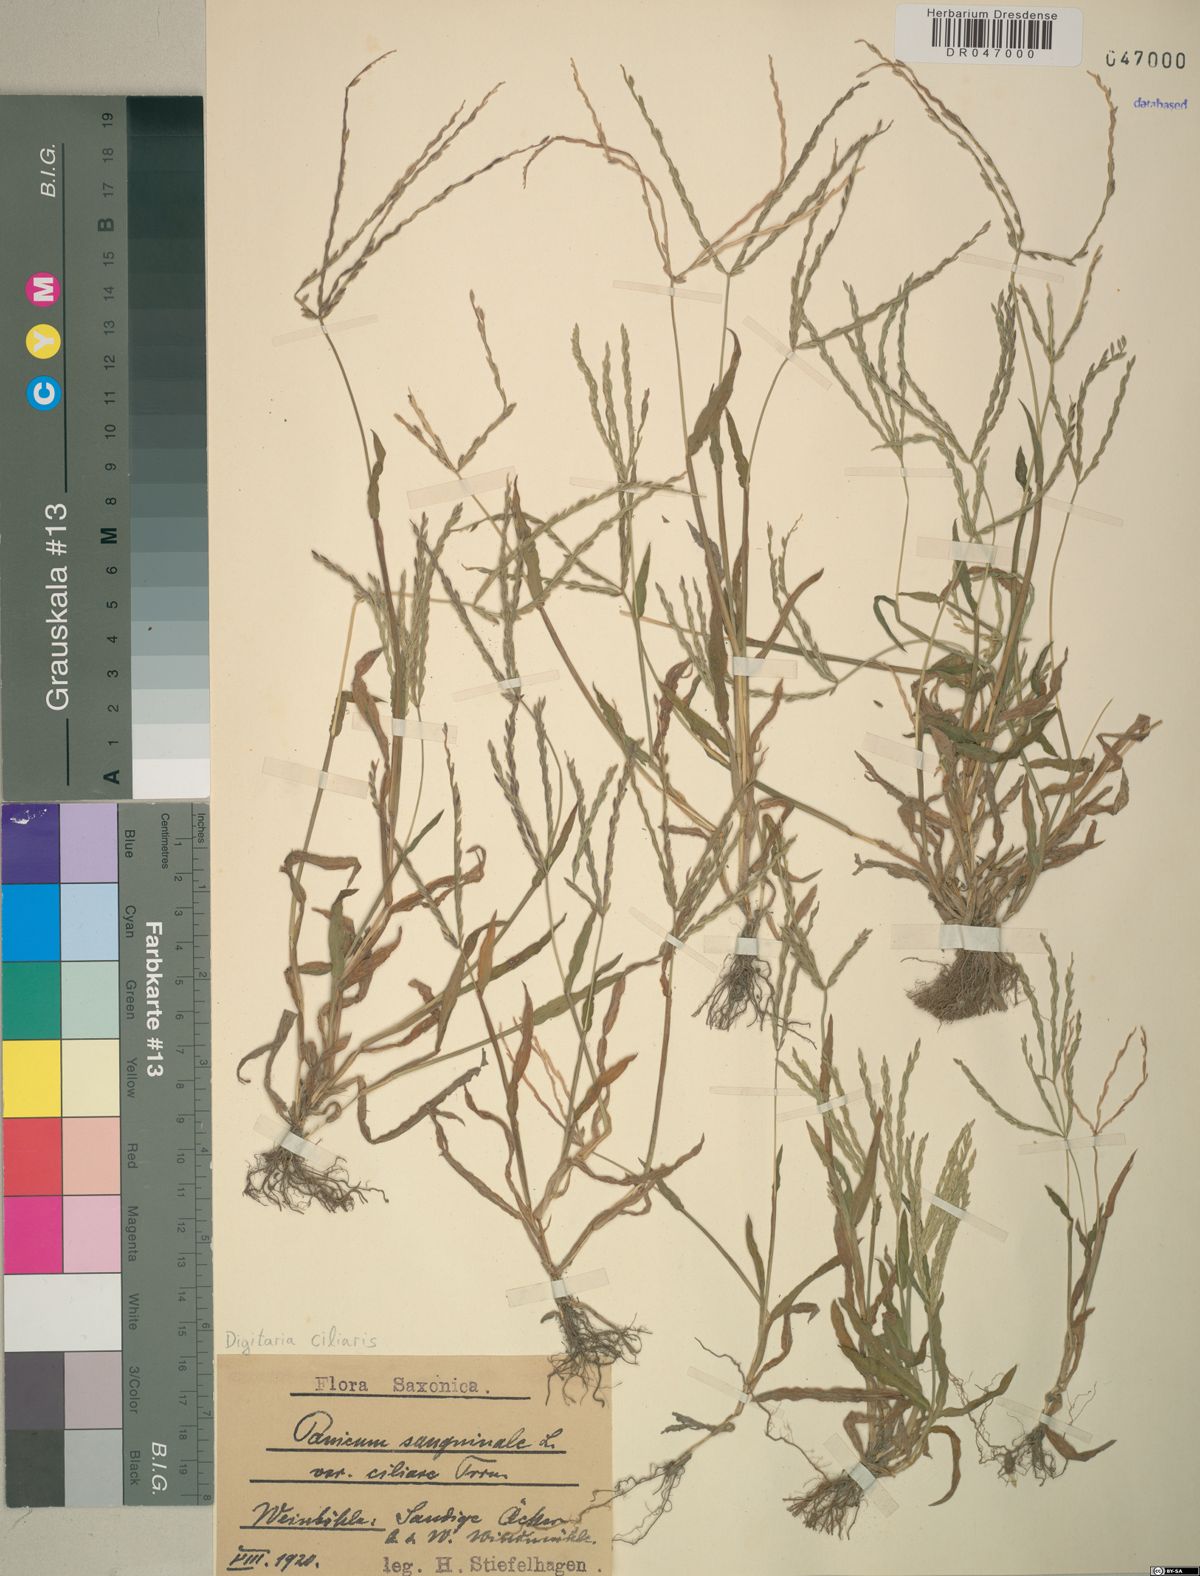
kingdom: Plantae
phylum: Tracheophyta
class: Liliopsida
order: Poales
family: Poaceae
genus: Digitaria
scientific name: Digitaria ciliaris
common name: Tropical finger-grass
